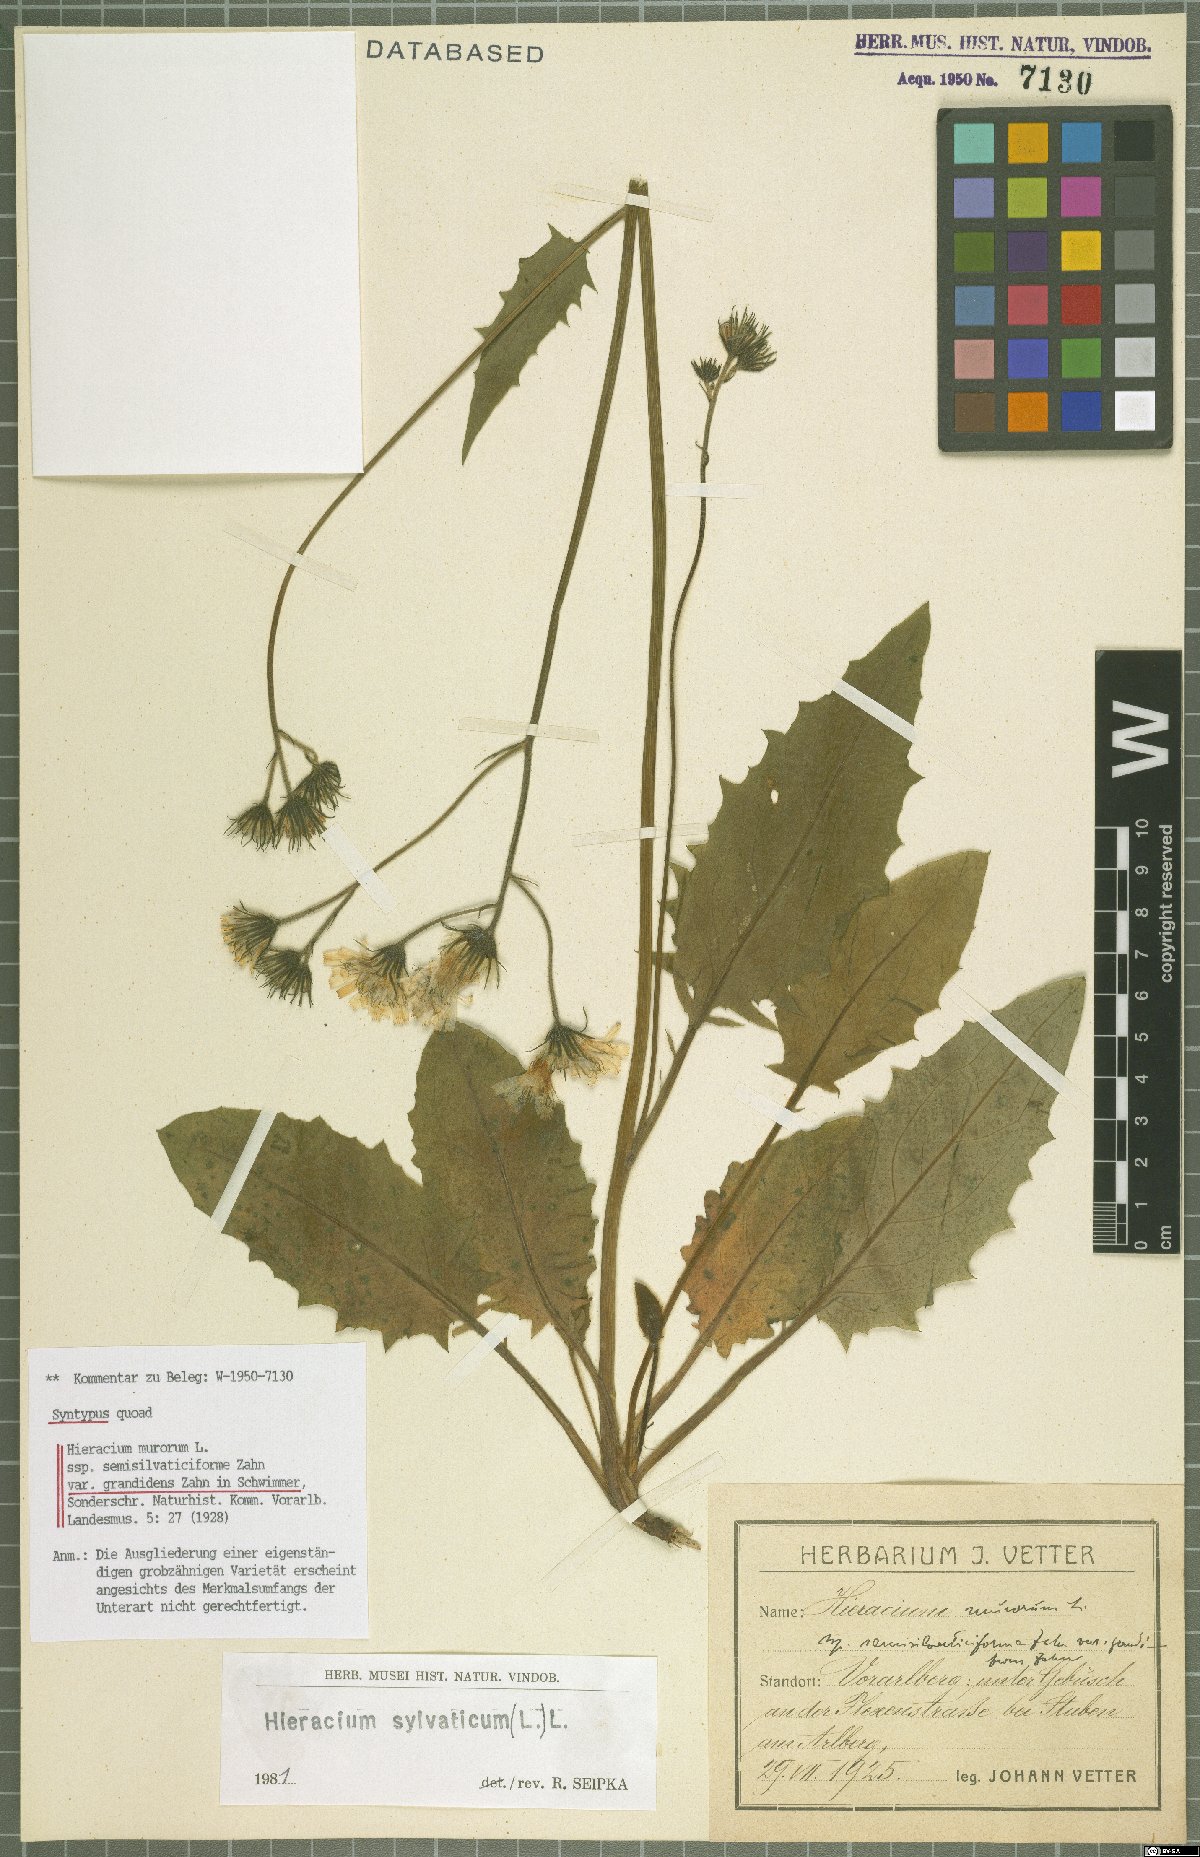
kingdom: Plantae
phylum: Tracheophyta
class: Magnoliopsida
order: Asterales
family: Asteraceae
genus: Hieracium
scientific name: Hieracium murorum
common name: Wall hawkweed
